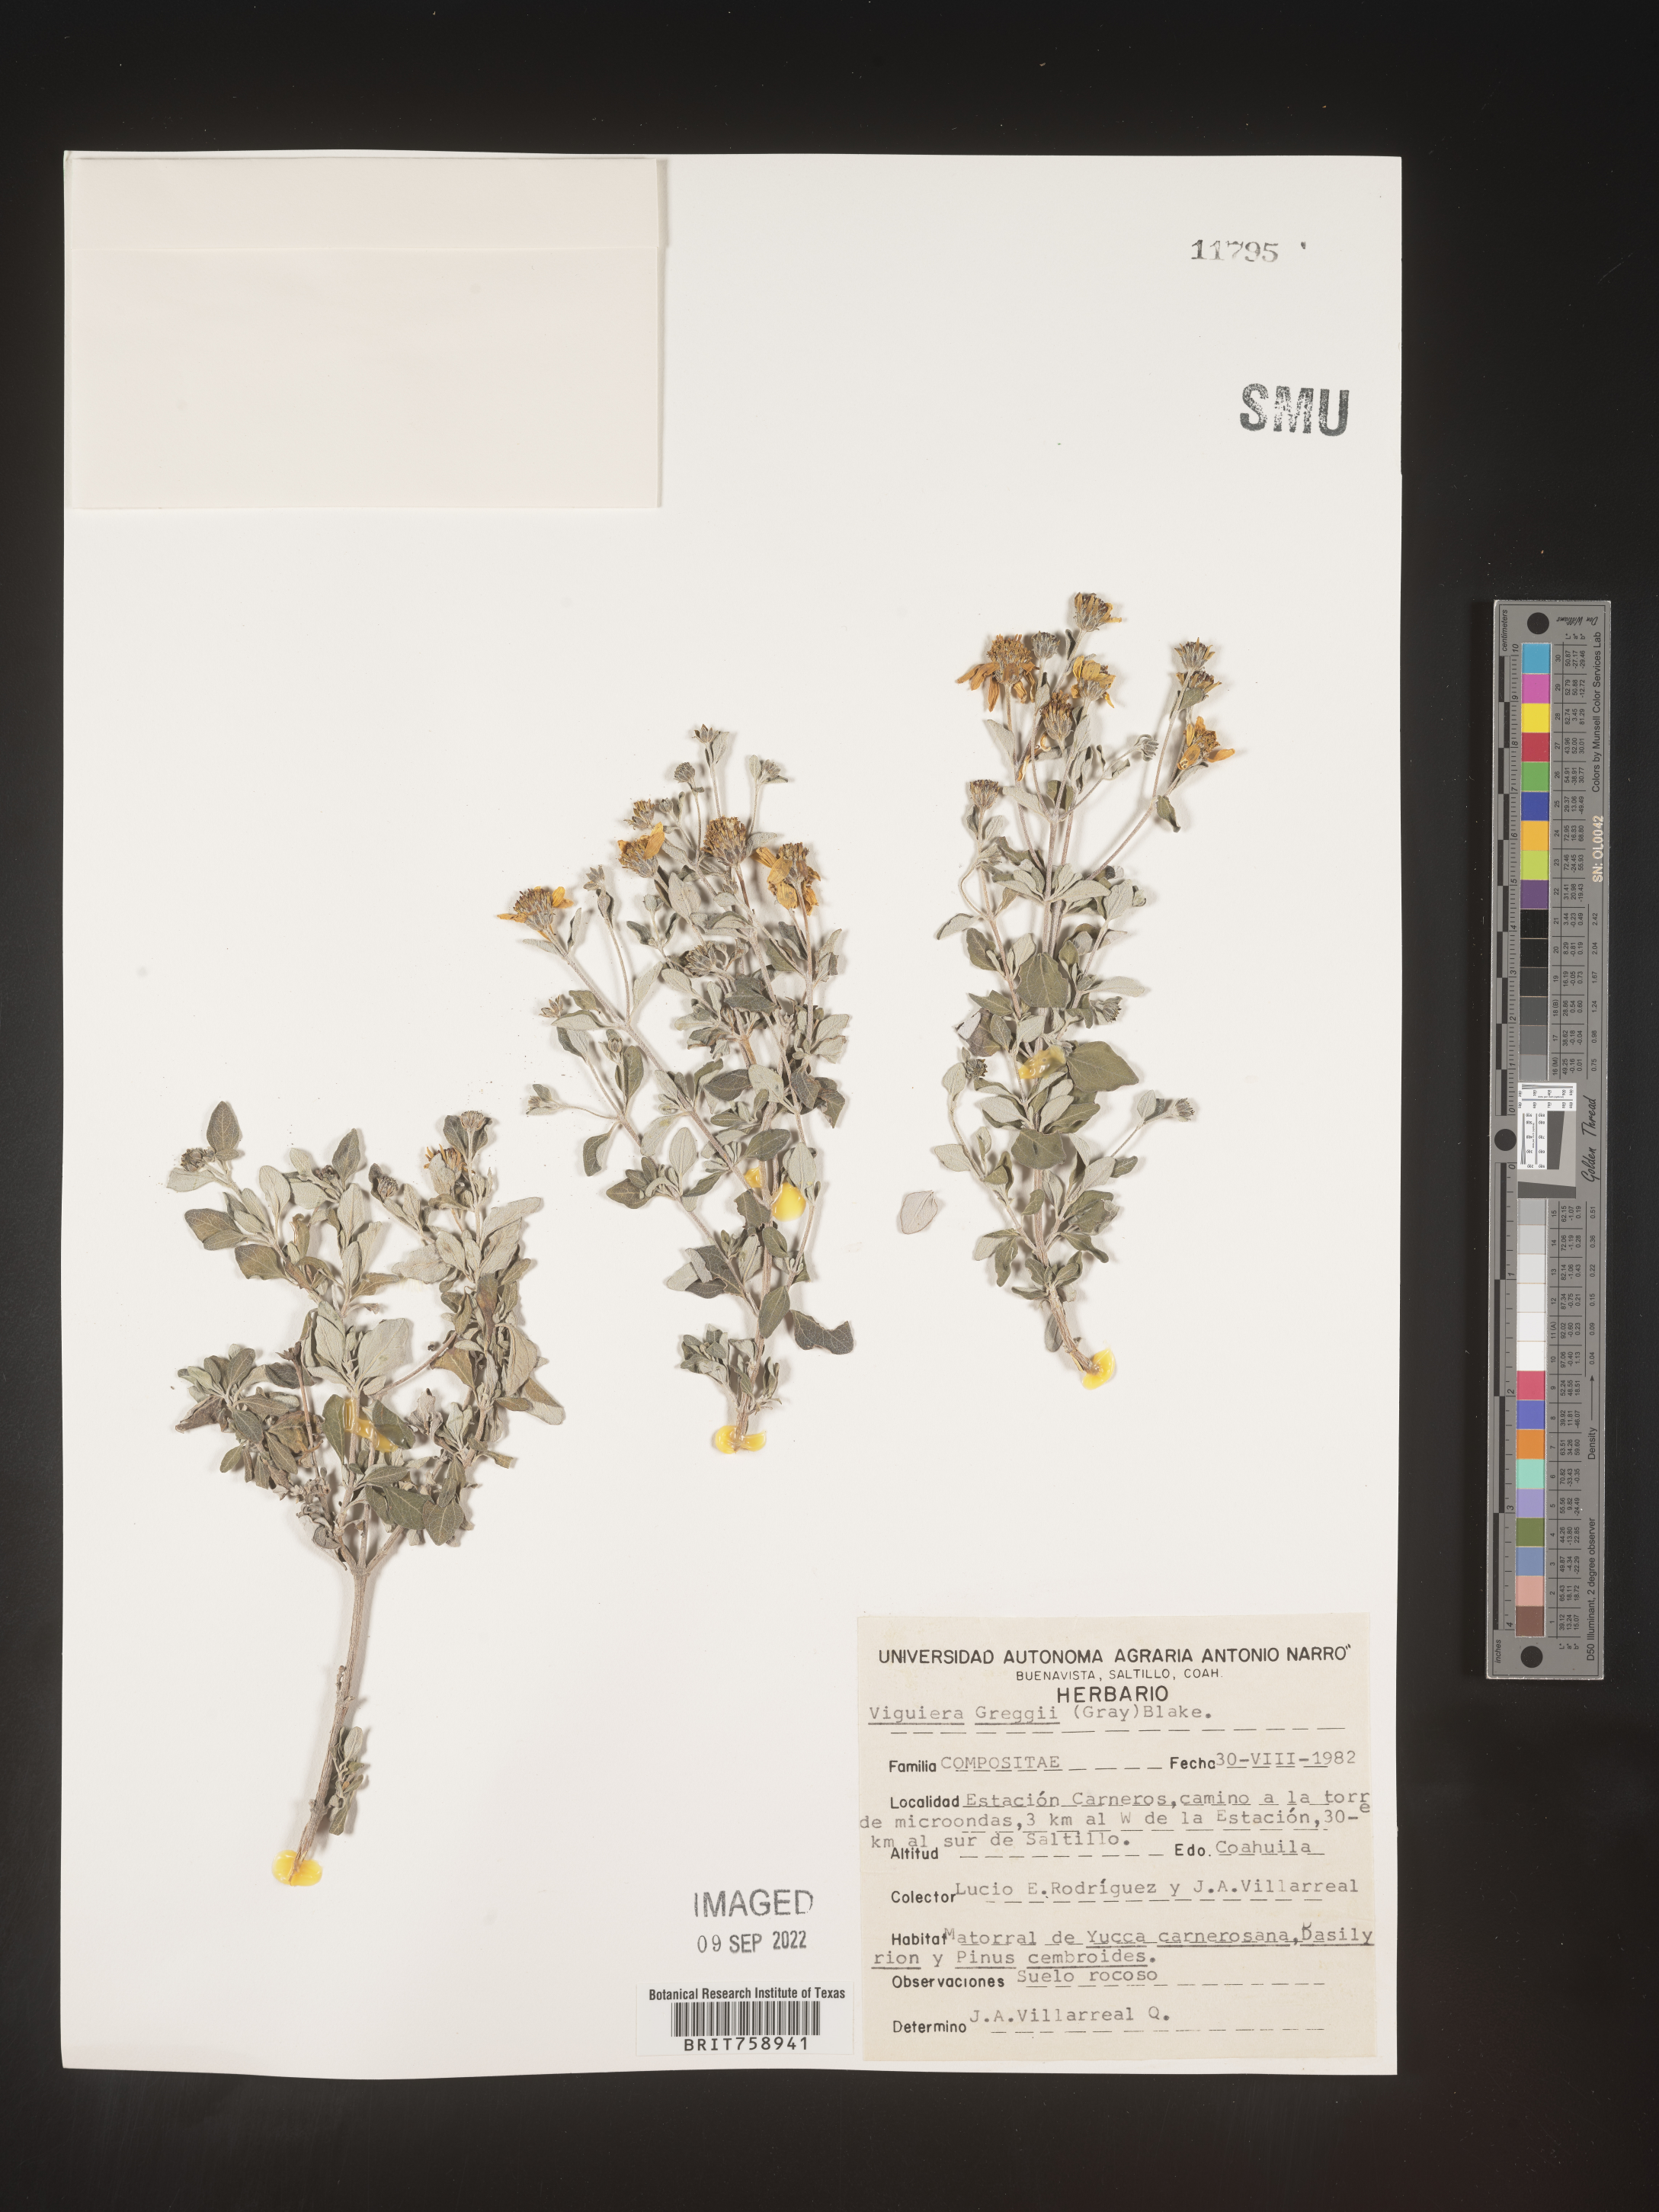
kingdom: Plantae
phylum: Tracheophyta
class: Magnoliopsida
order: Asterales
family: Asteraceae
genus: Viguiera
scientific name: Viguiera
